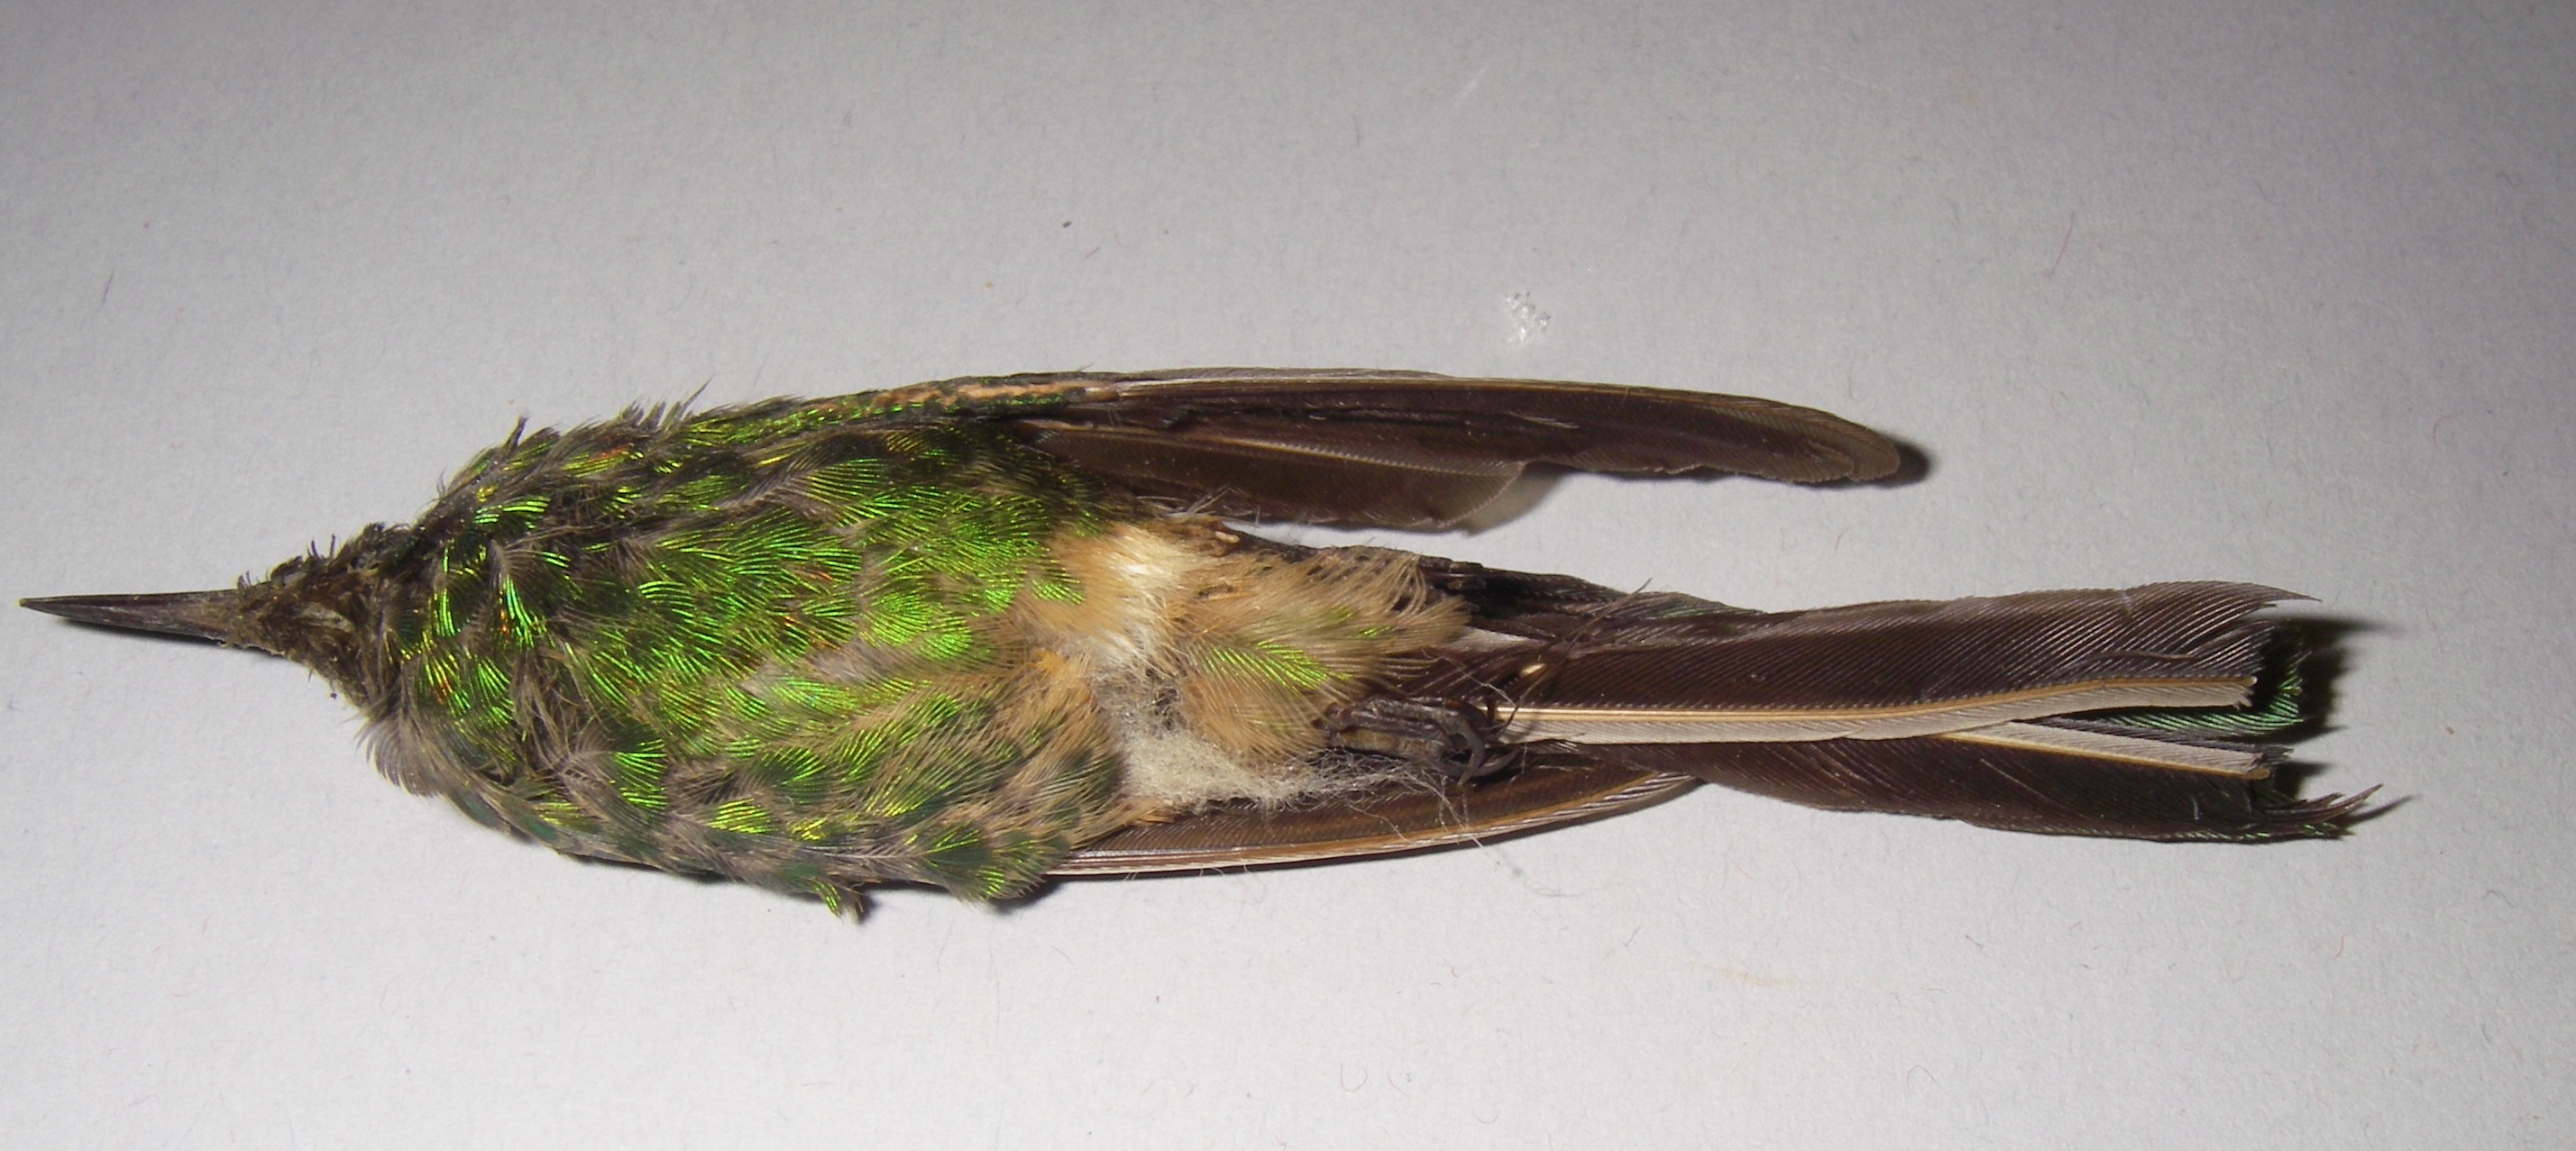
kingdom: Animalia
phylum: Chordata
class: Aves
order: Apodiformes
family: Trochilidae
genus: Chlorostilbon
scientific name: Chlorostilbon
